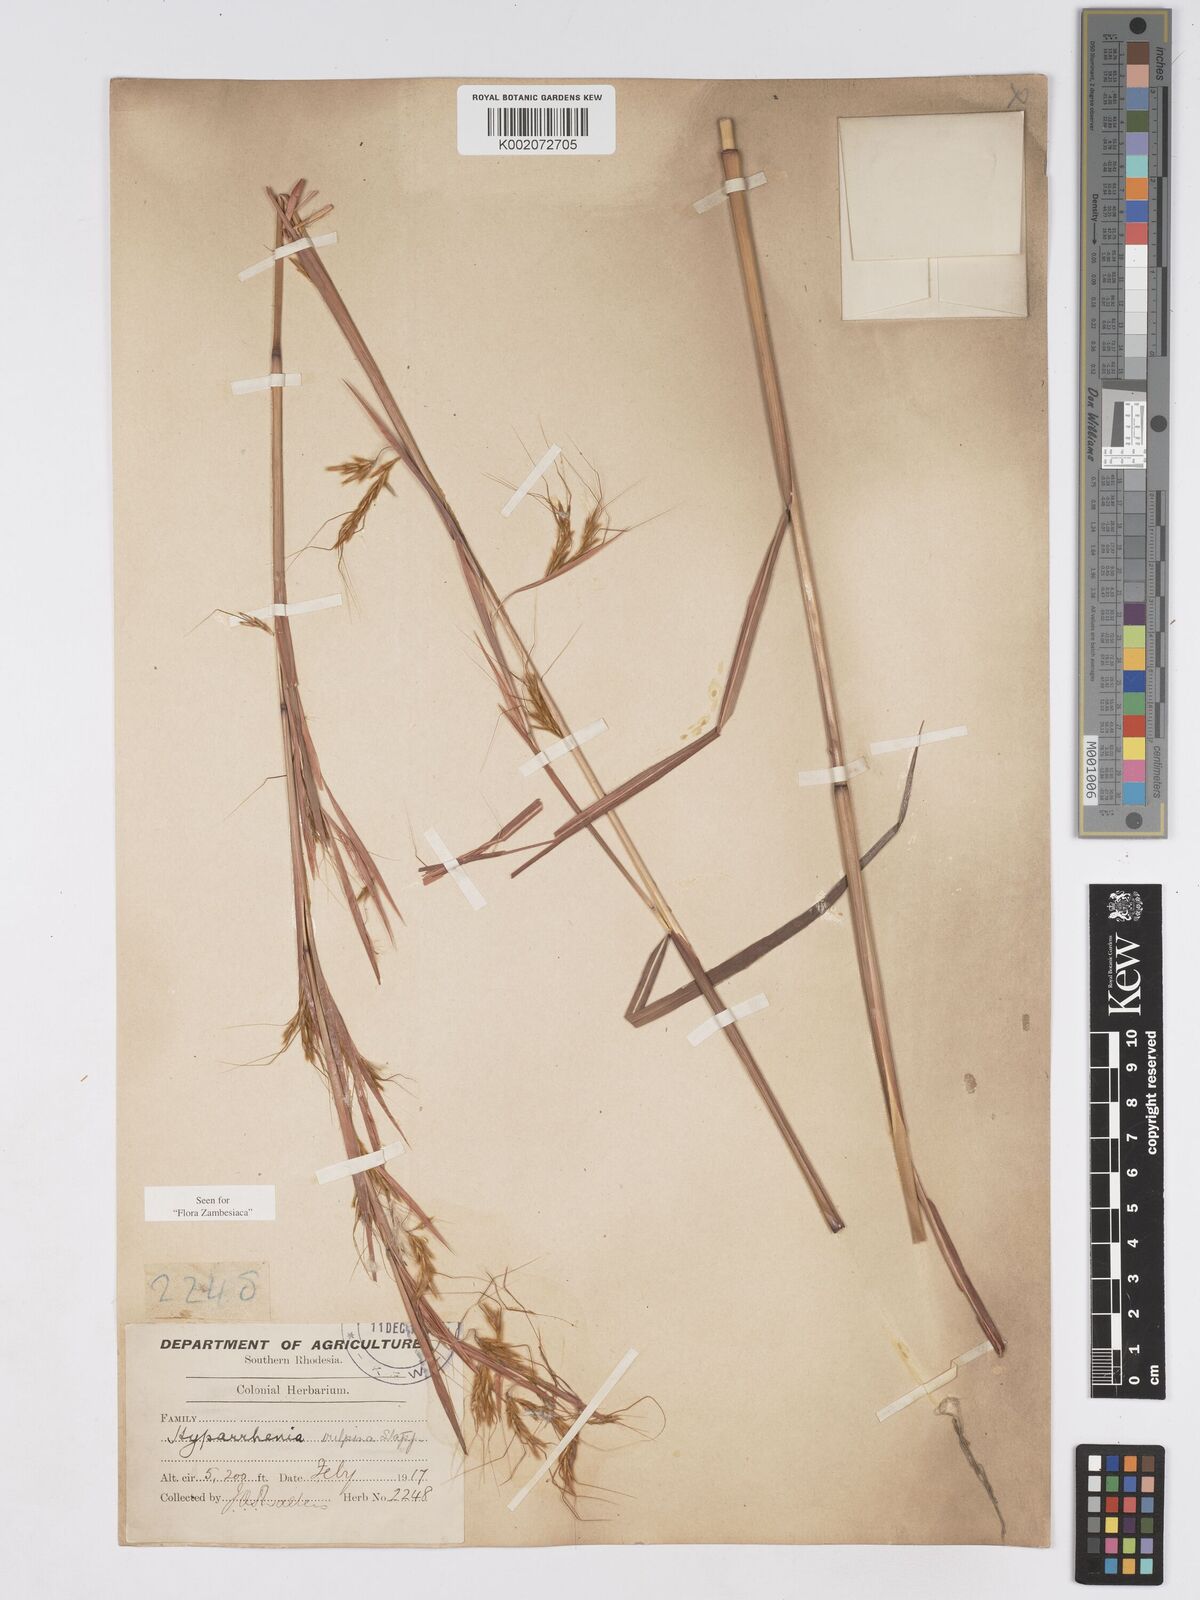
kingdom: Plantae
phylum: Tracheophyta
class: Liliopsida
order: Poales
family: Poaceae
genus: Hyparrhenia
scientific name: Hyparrhenia nyassae
